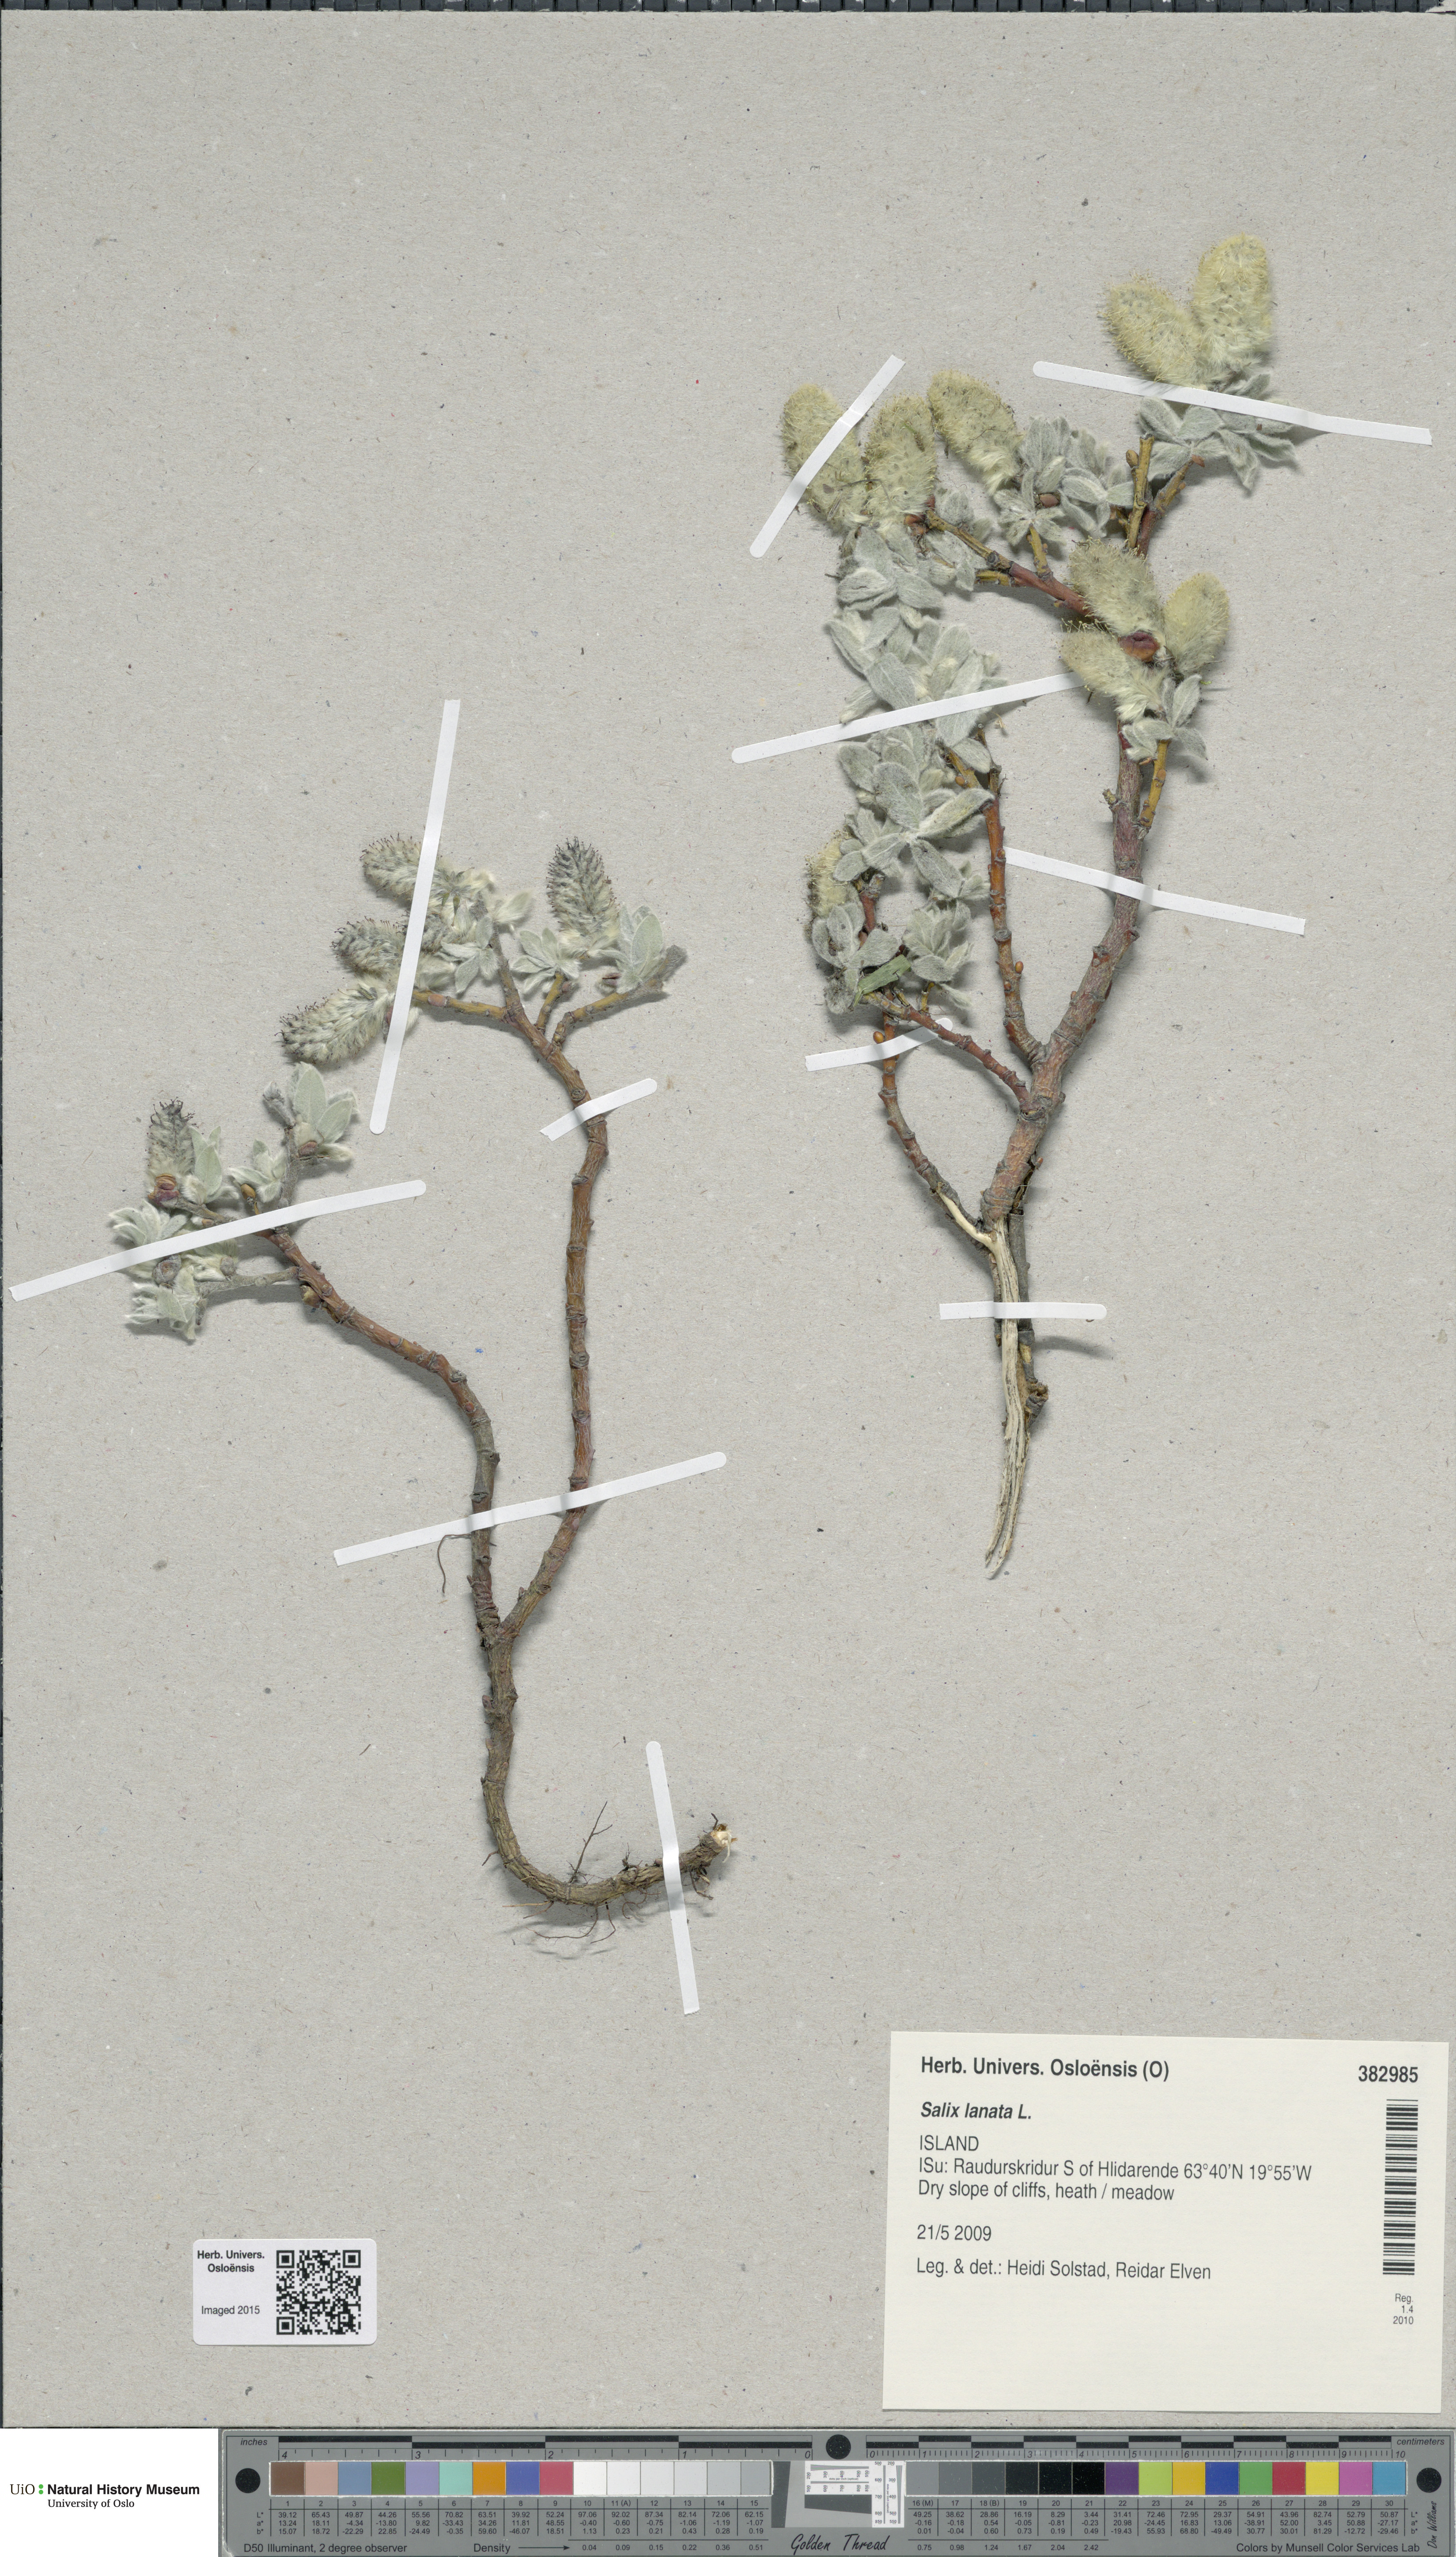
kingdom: Plantae
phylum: Tracheophyta
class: Magnoliopsida
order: Malpighiales
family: Salicaceae
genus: Salix
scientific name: Salix lanata
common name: Woolly willow
